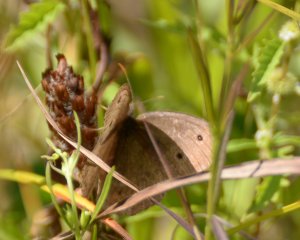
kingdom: Animalia
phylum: Arthropoda
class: Insecta
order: Lepidoptera
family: Nymphalidae
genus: Cercyonis
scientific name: Cercyonis pegala
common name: Common Wood-Nymph
